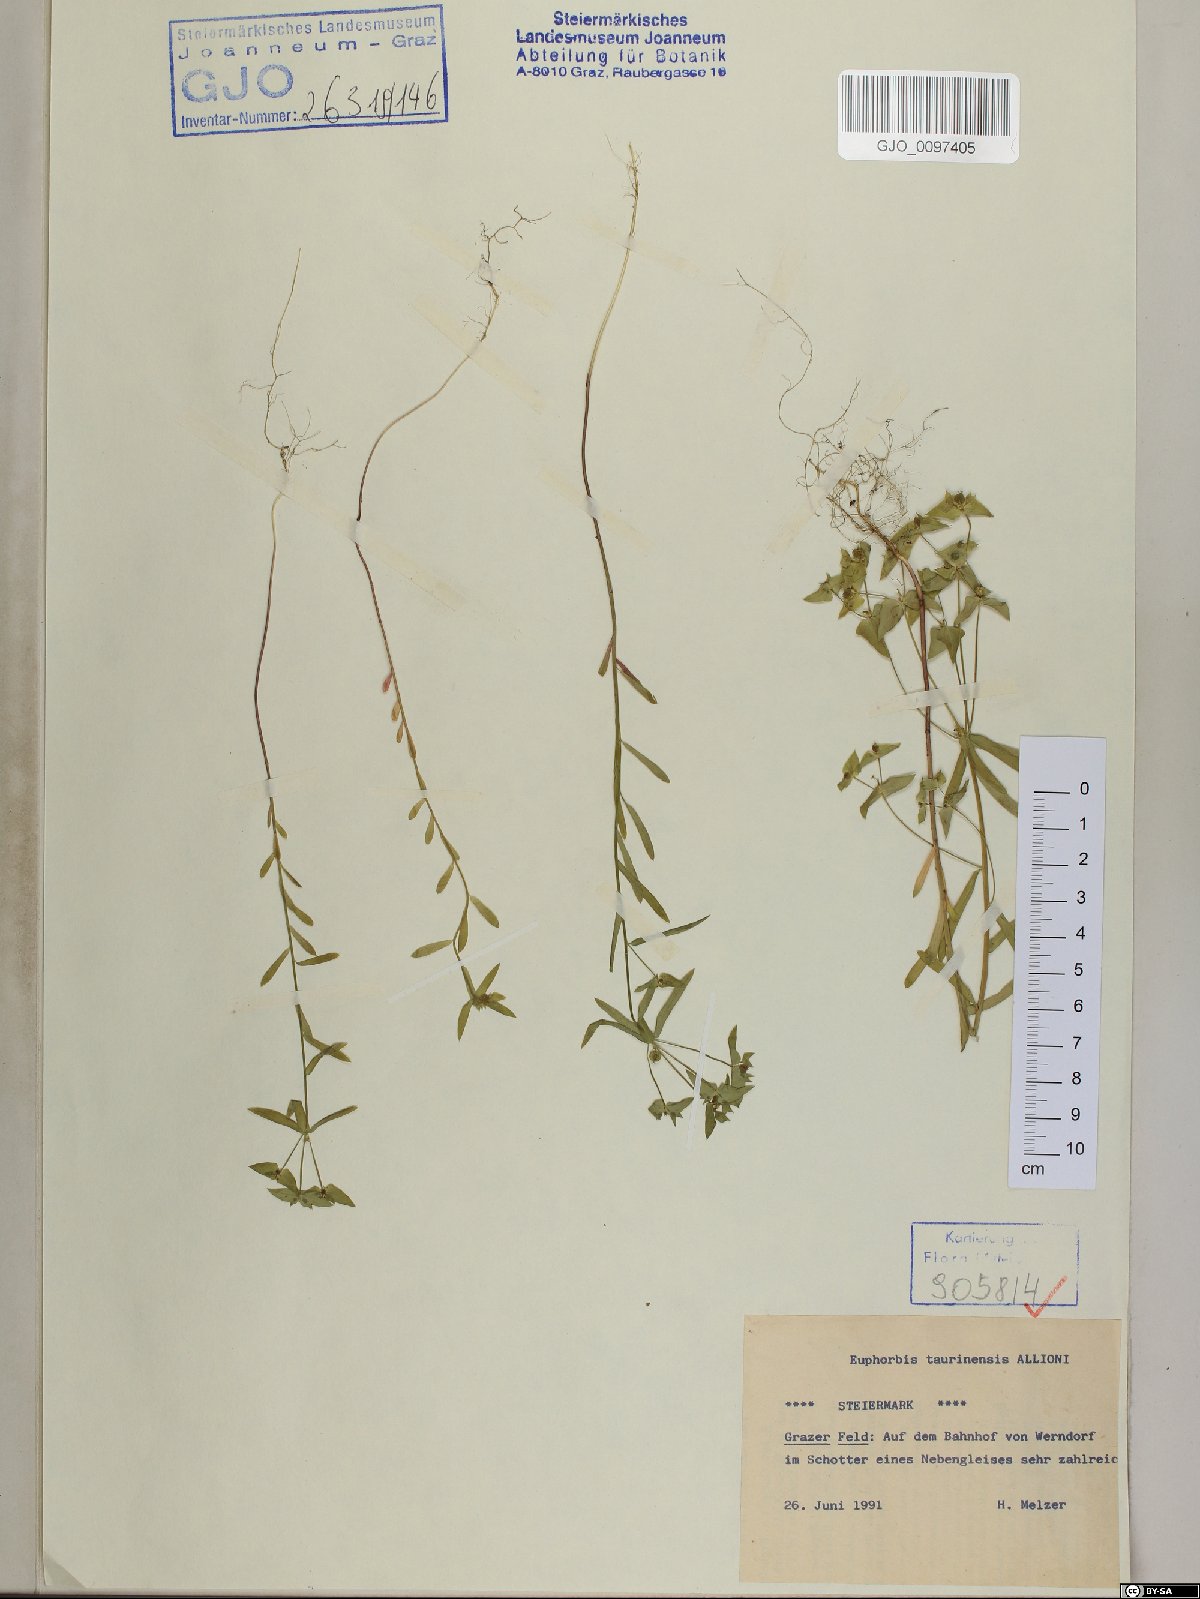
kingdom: Plantae
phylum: Tracheophyta
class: Magnoliopsida
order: Malpighiales
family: Euphorbiaceae
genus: Euphorbia
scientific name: Euphorbia taurinensis
